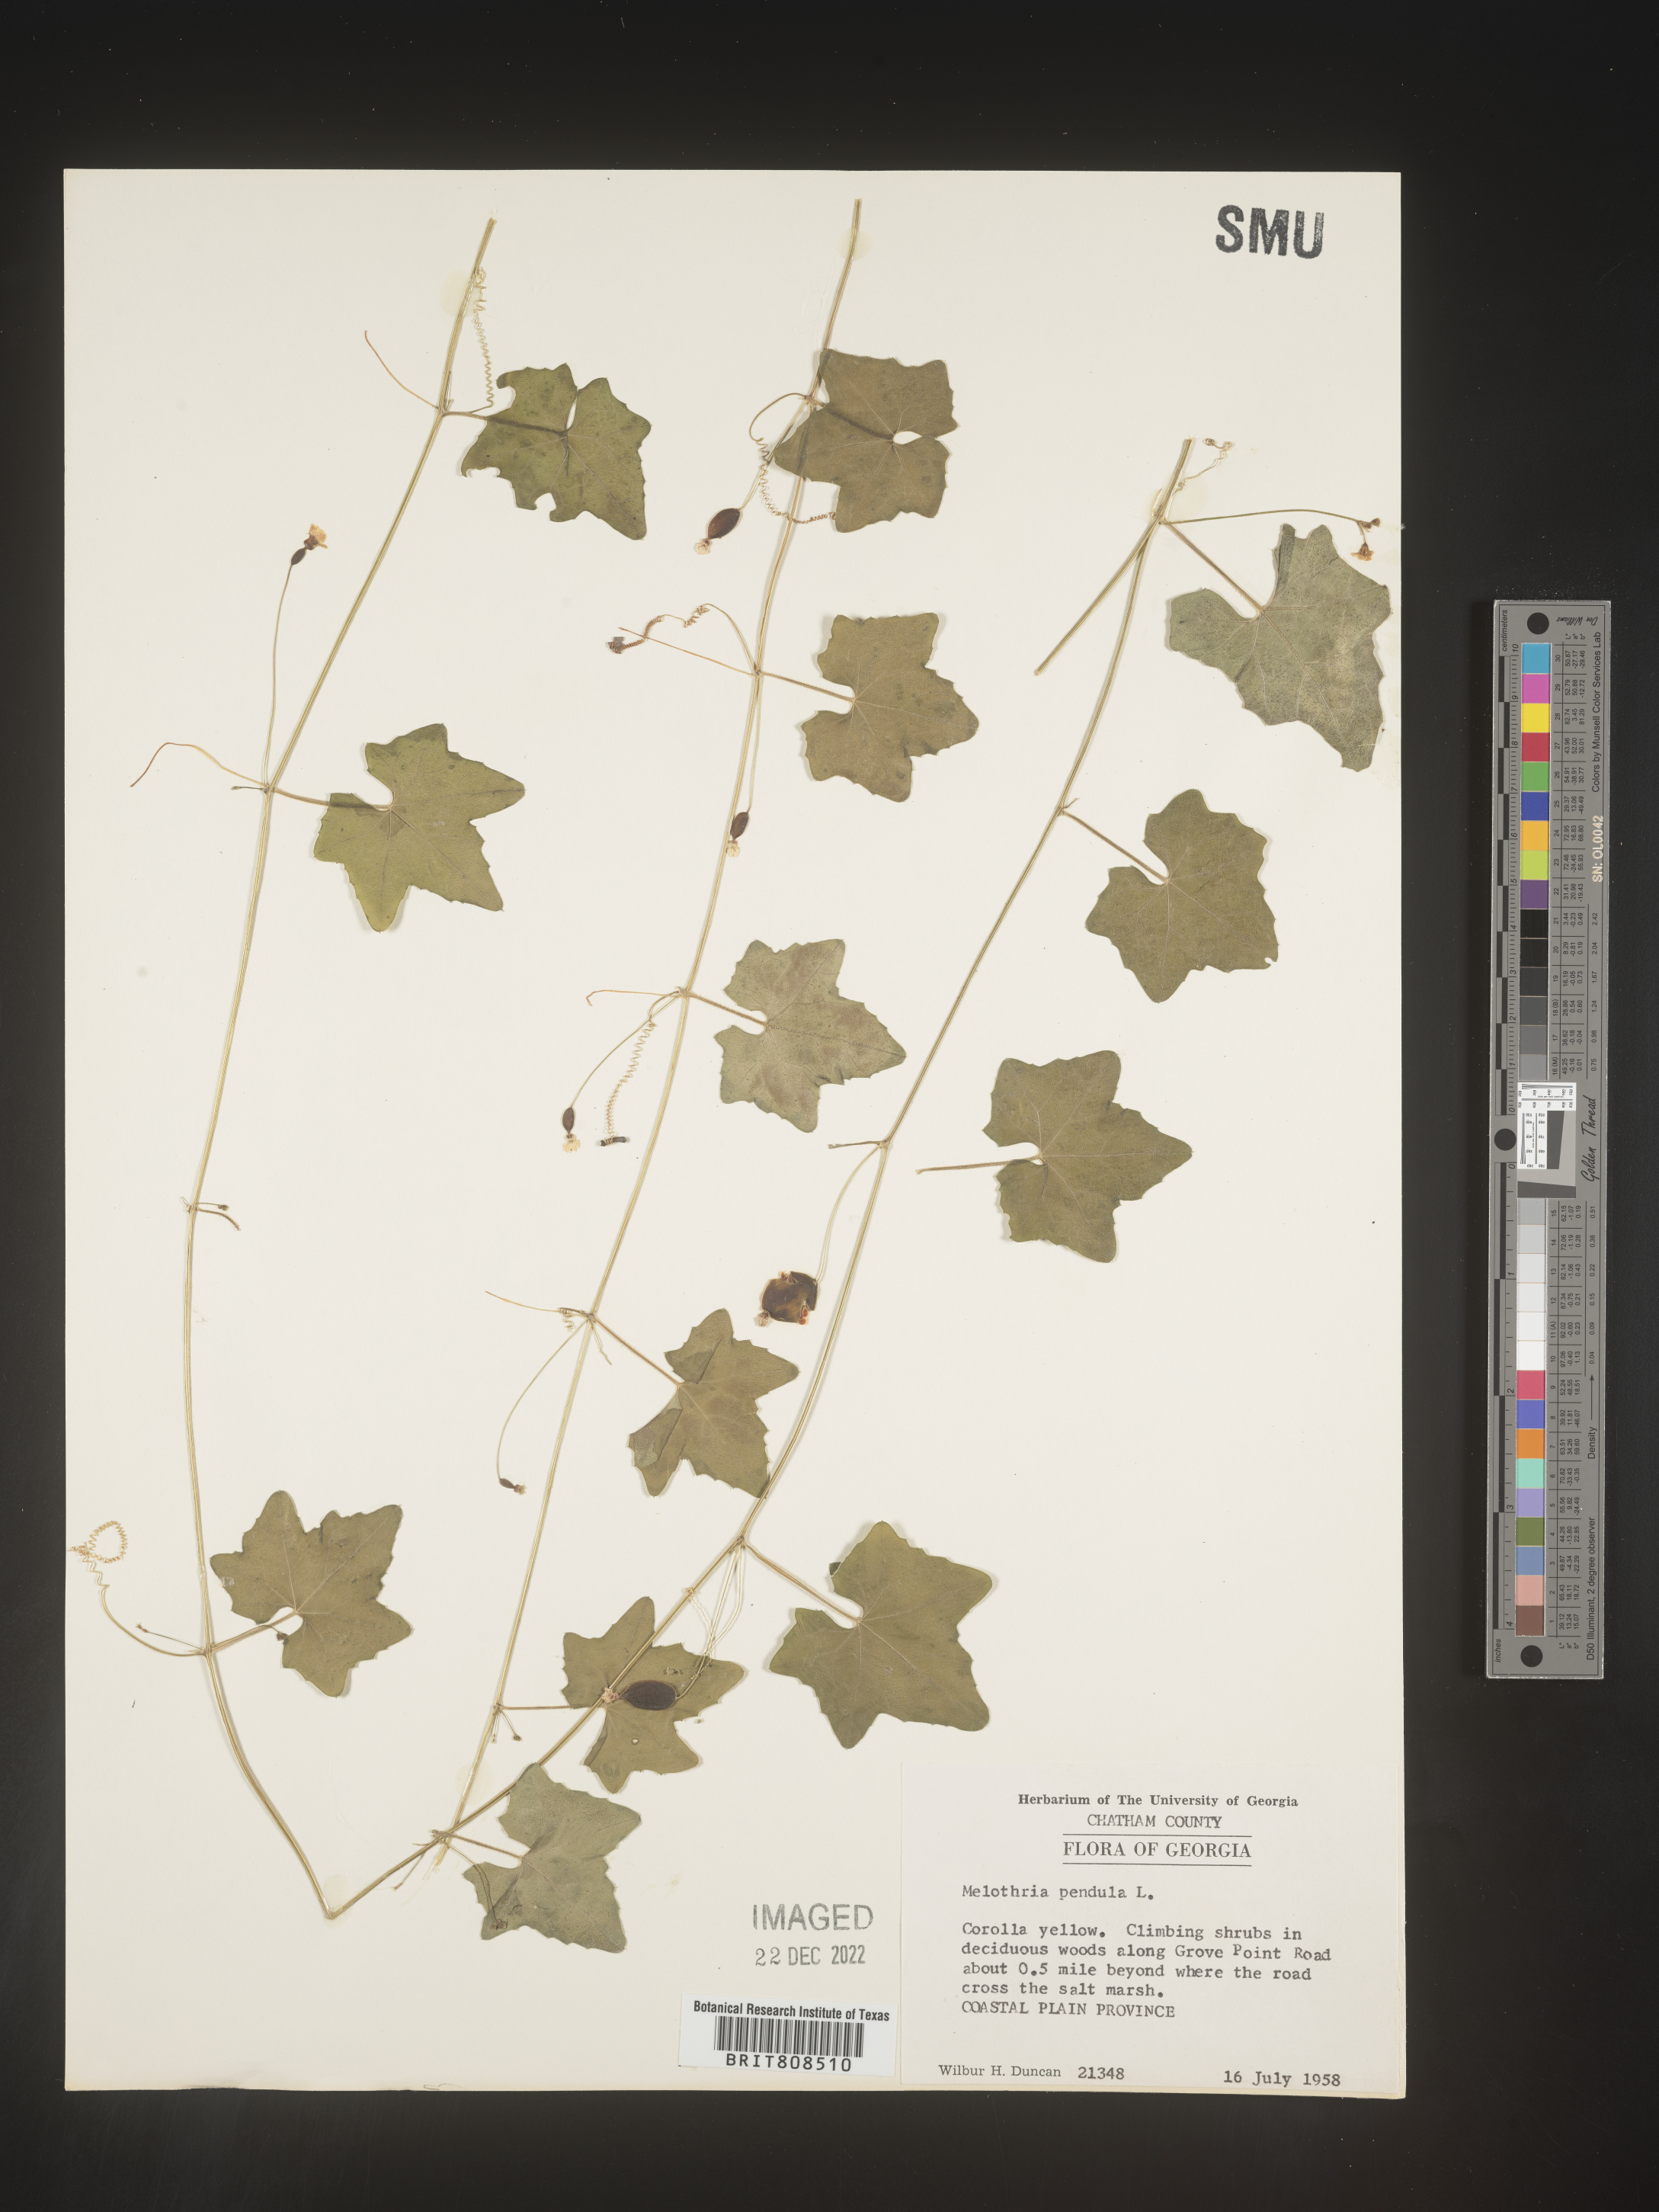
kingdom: Plantae
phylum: Tracheophyta
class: Magnoliopsida
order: Cucurbitales
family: Cucurbitaceae
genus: Melothria
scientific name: Melothria pendula
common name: Creeping-cucumber
